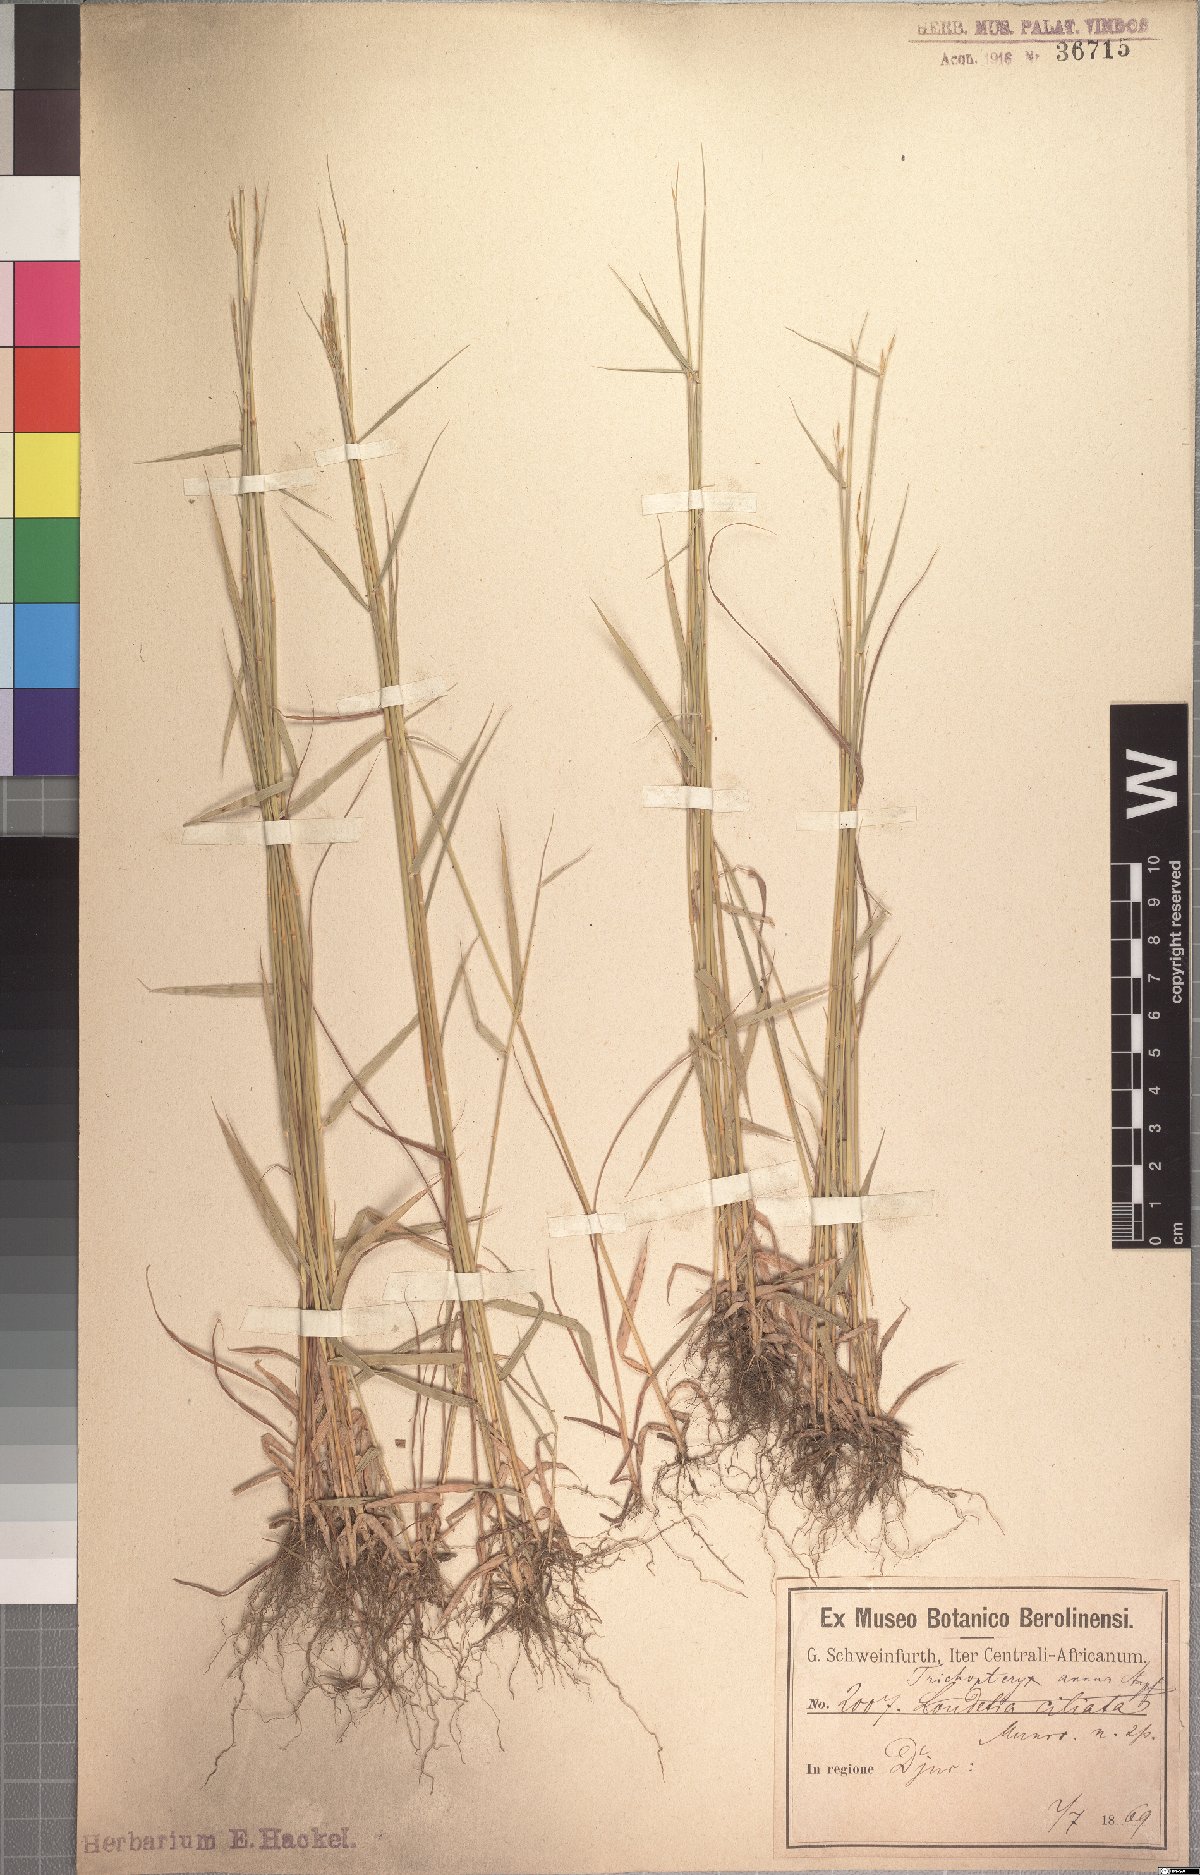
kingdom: Plantae
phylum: Tracheophyta
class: Liliopsida
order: Poales
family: Poaceae
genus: Loudetia
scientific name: Loudetia annua
